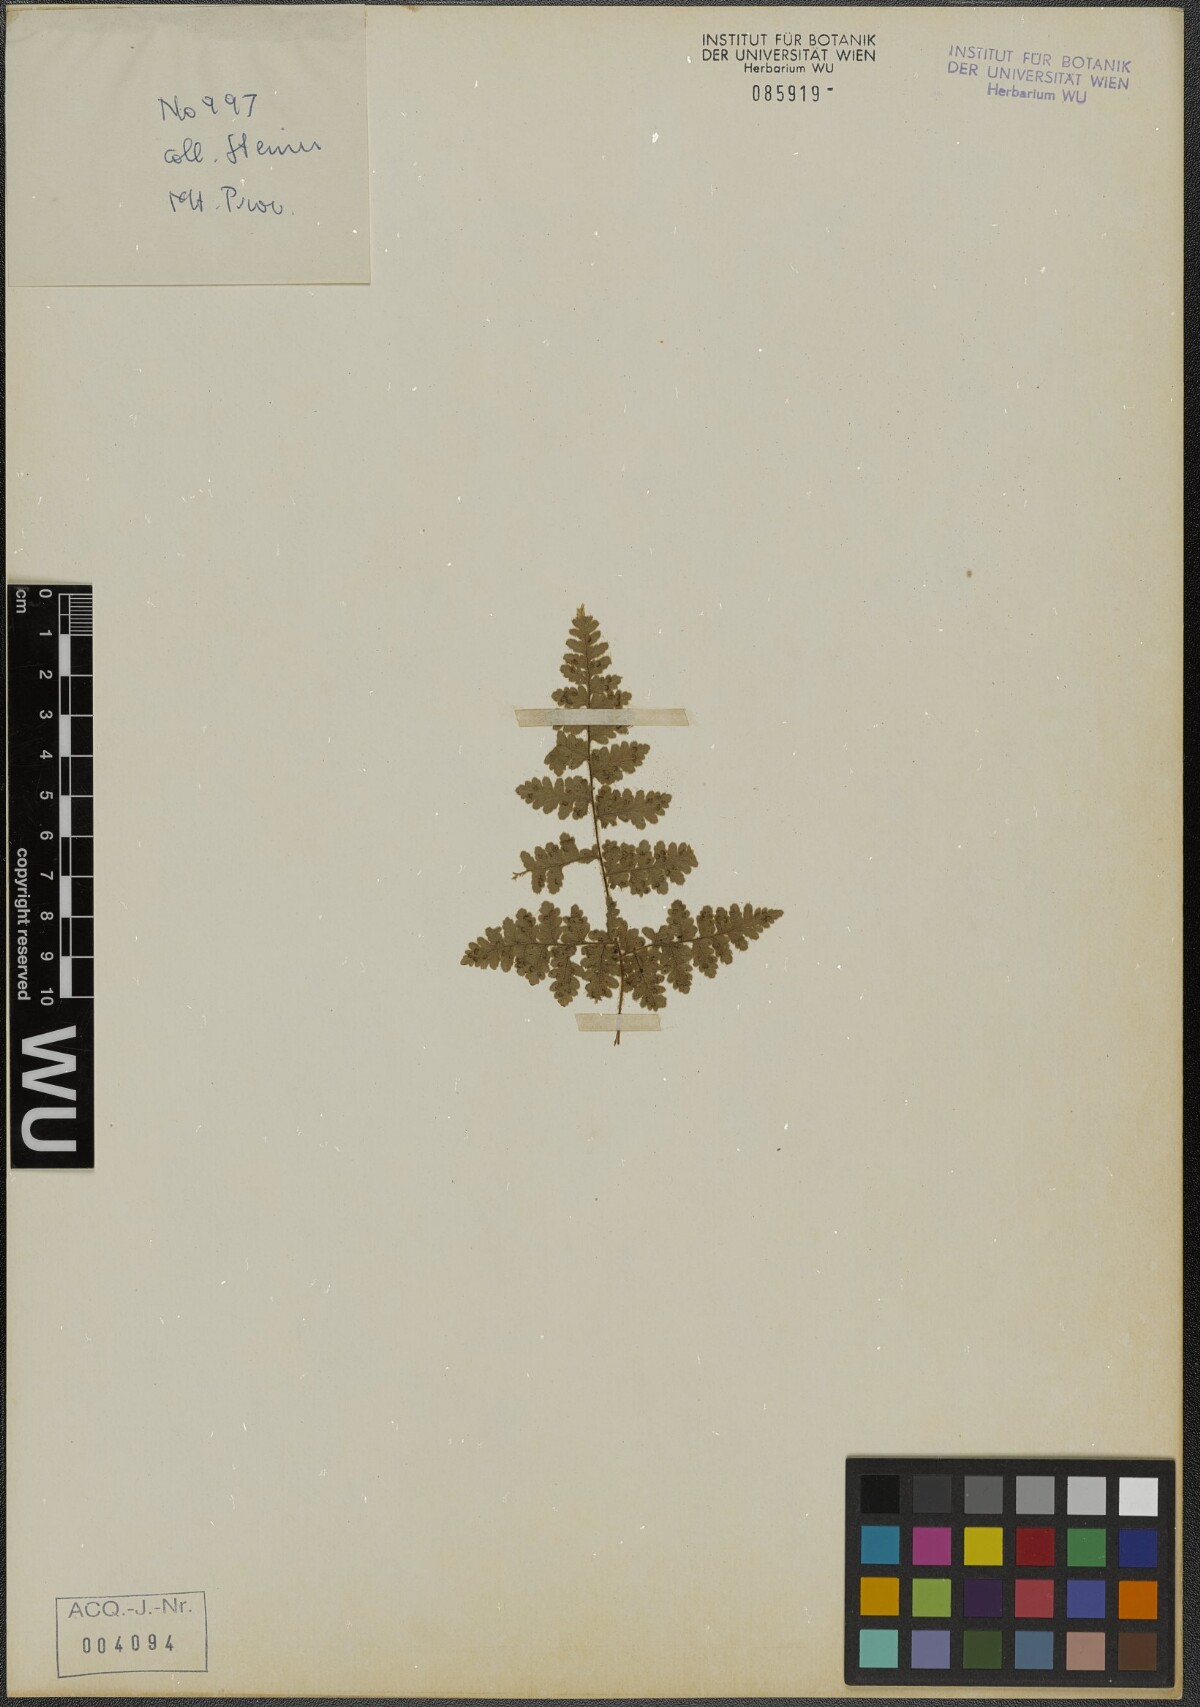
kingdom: Plantae
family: Pteridophyta
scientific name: Pteridophyta
